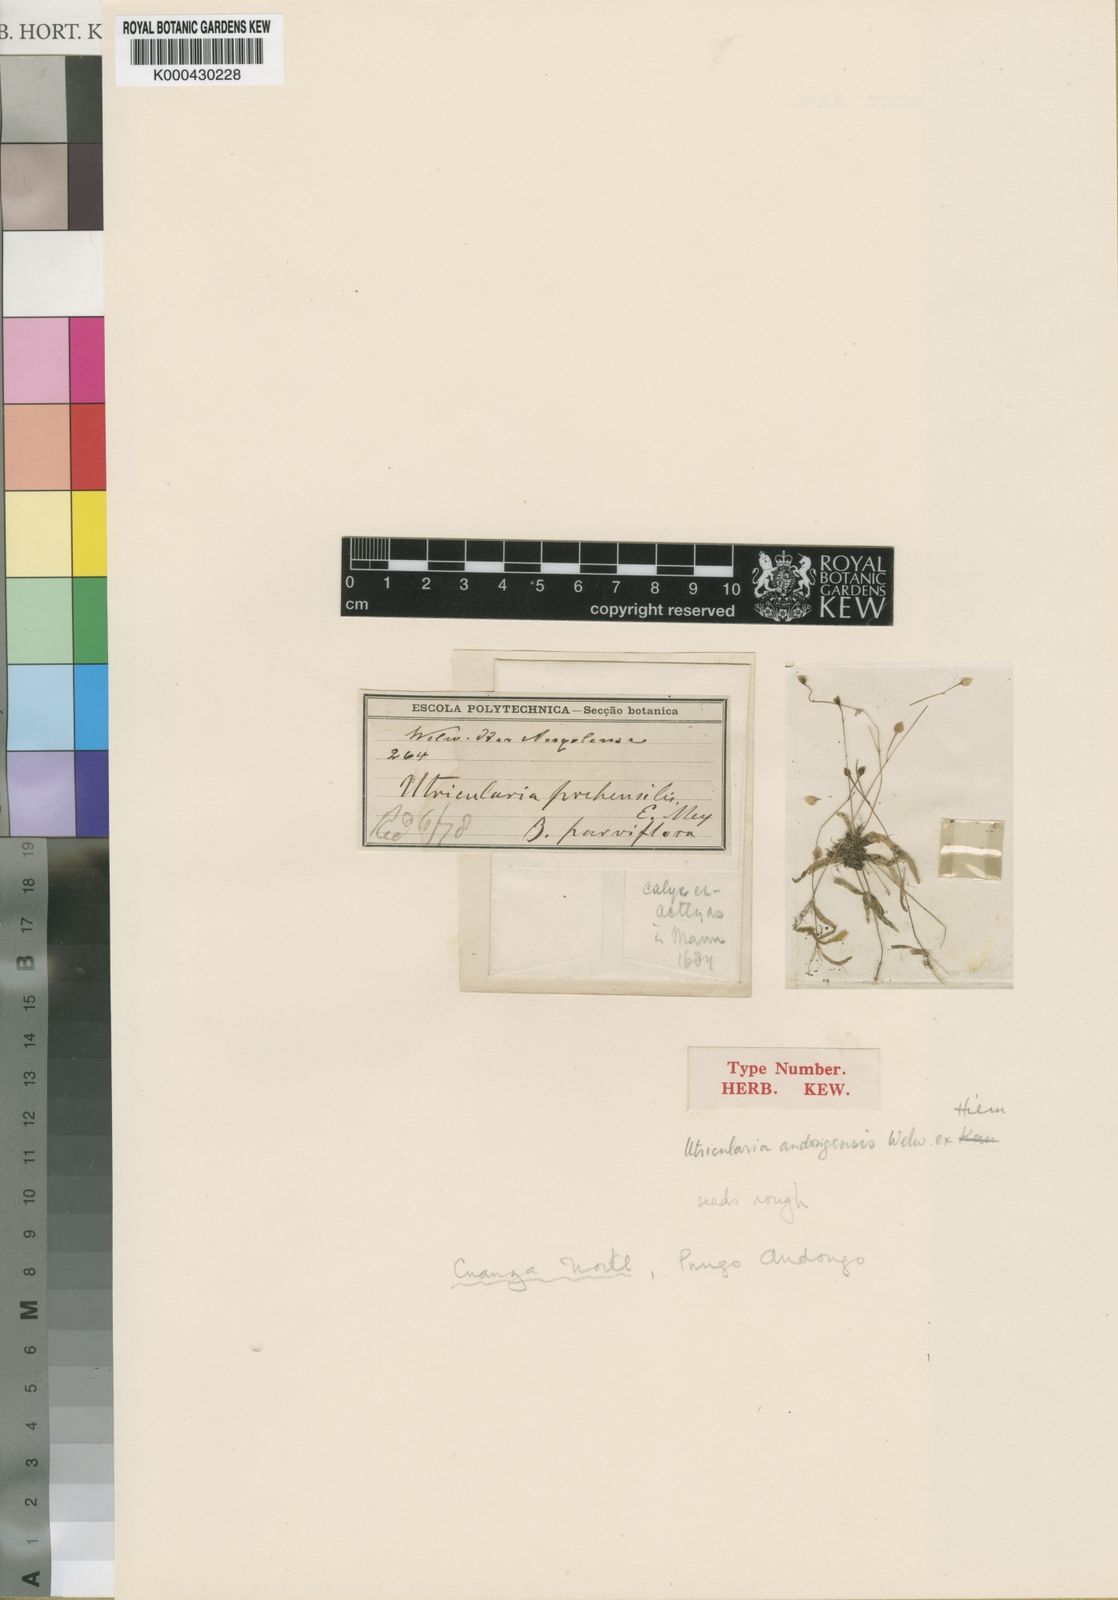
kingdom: Plantae
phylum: Tracheophyta
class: Magnoliopsida
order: Lamiales
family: Lentibulariaceae
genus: Utricularia
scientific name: Utricularia andongensis
